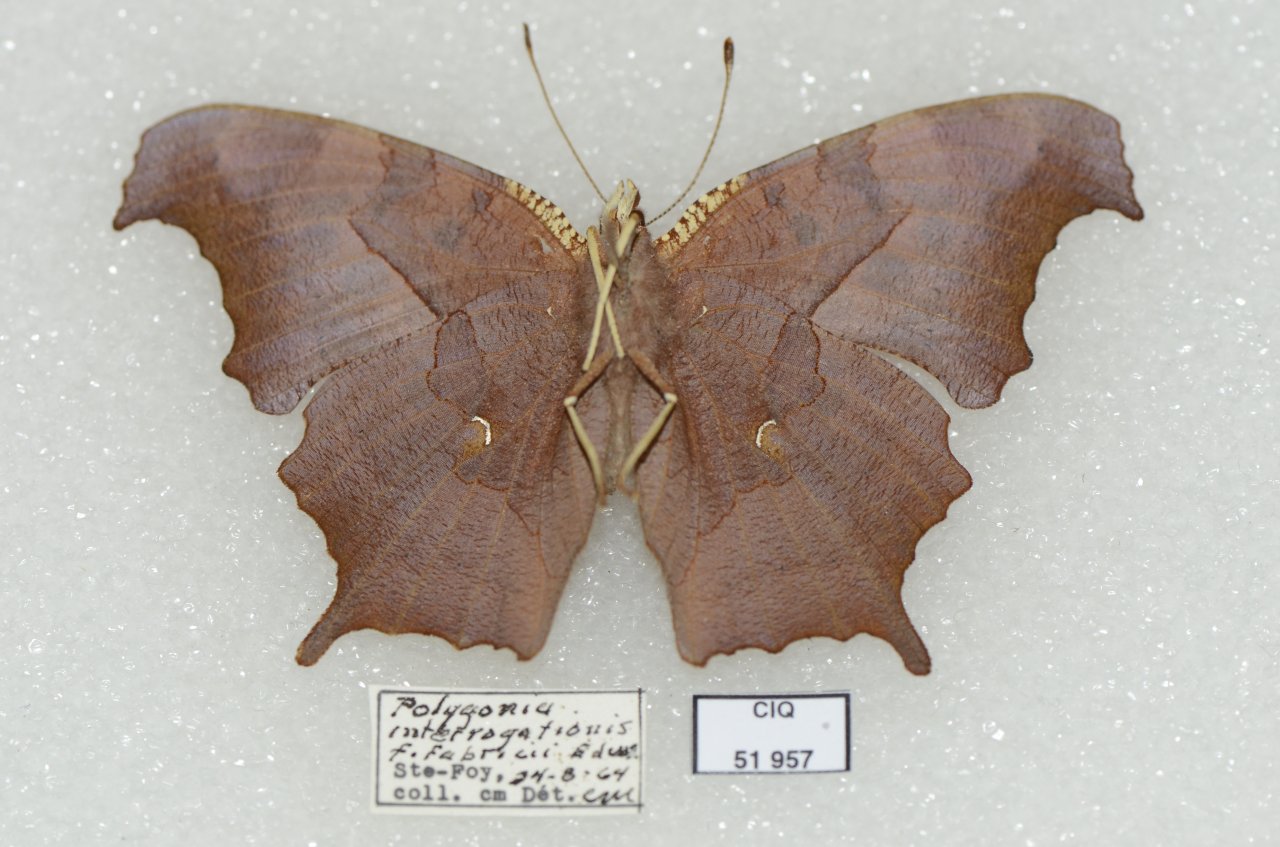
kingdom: Animalia
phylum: Arthropoda
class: Insecta
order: Lepidoptera
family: Nymphalidae
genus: Polygonia
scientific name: Polygonia interrogationis
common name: Question Mark
